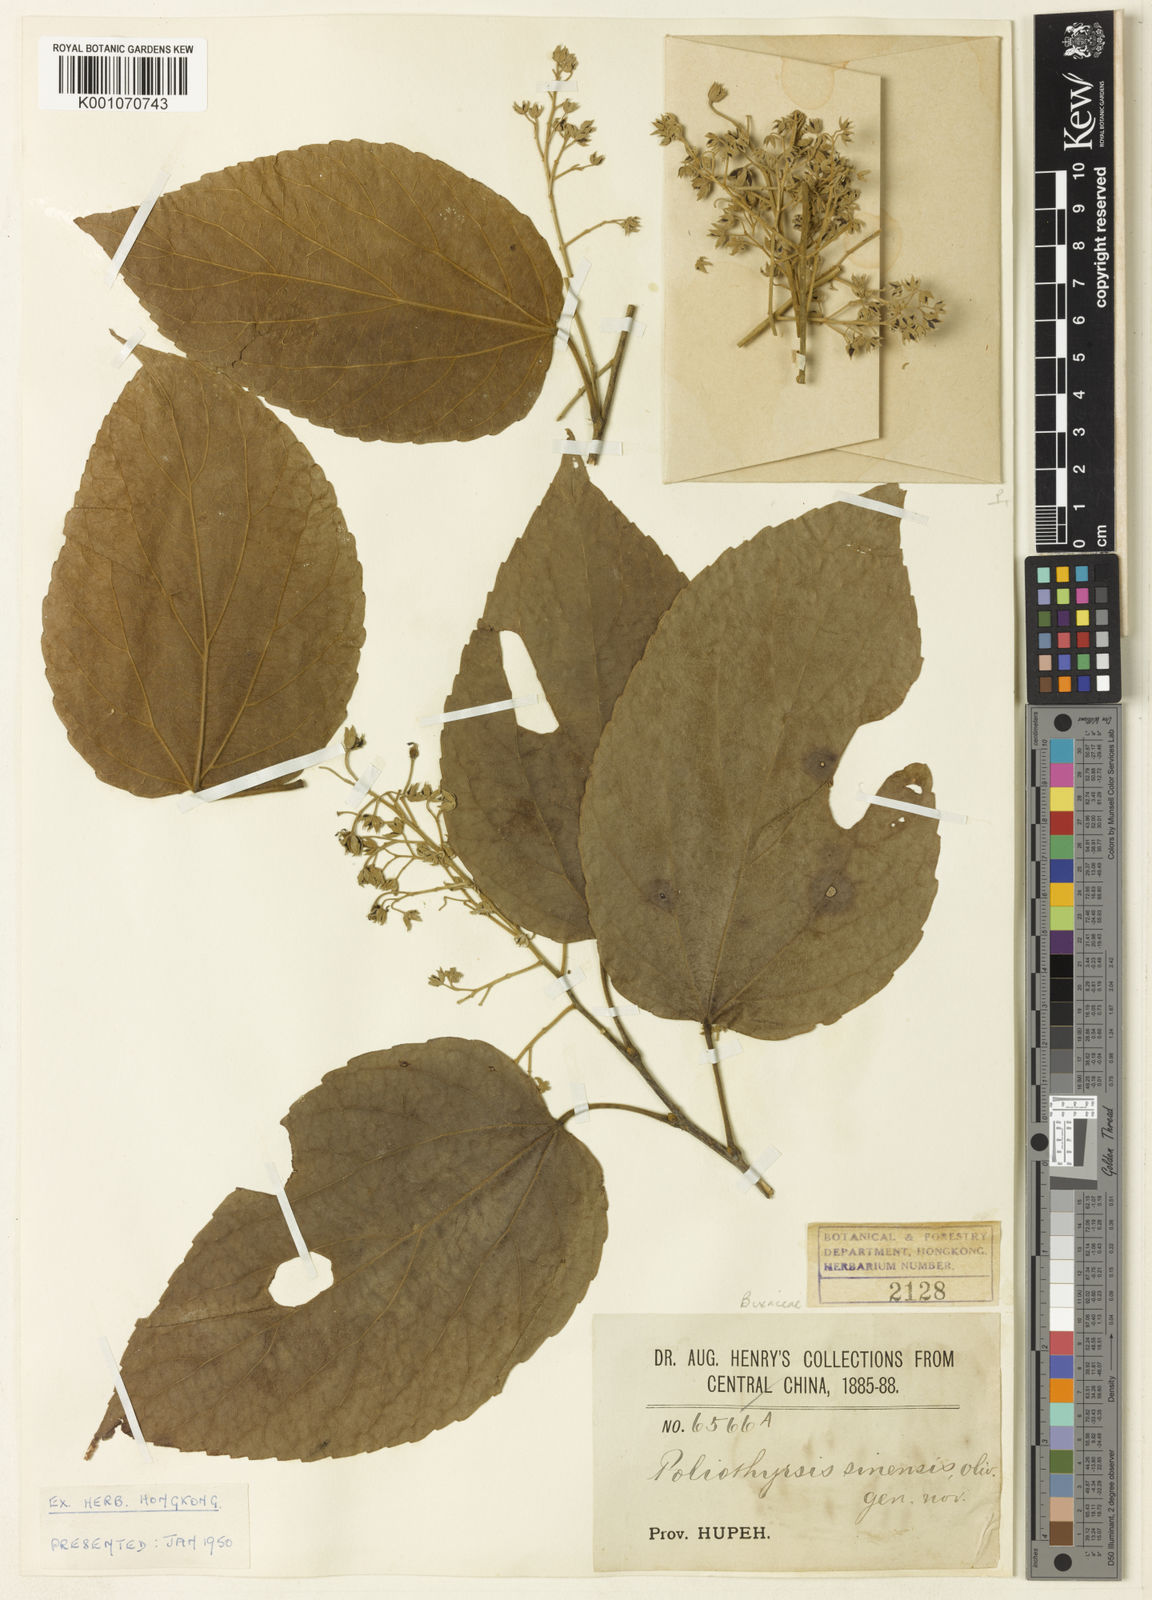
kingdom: Plantae
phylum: Tracheophyta
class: Magnoliopsida
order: Malpighiales
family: Salicaceae
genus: Poliothyrsis
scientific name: Poliothyrsis
